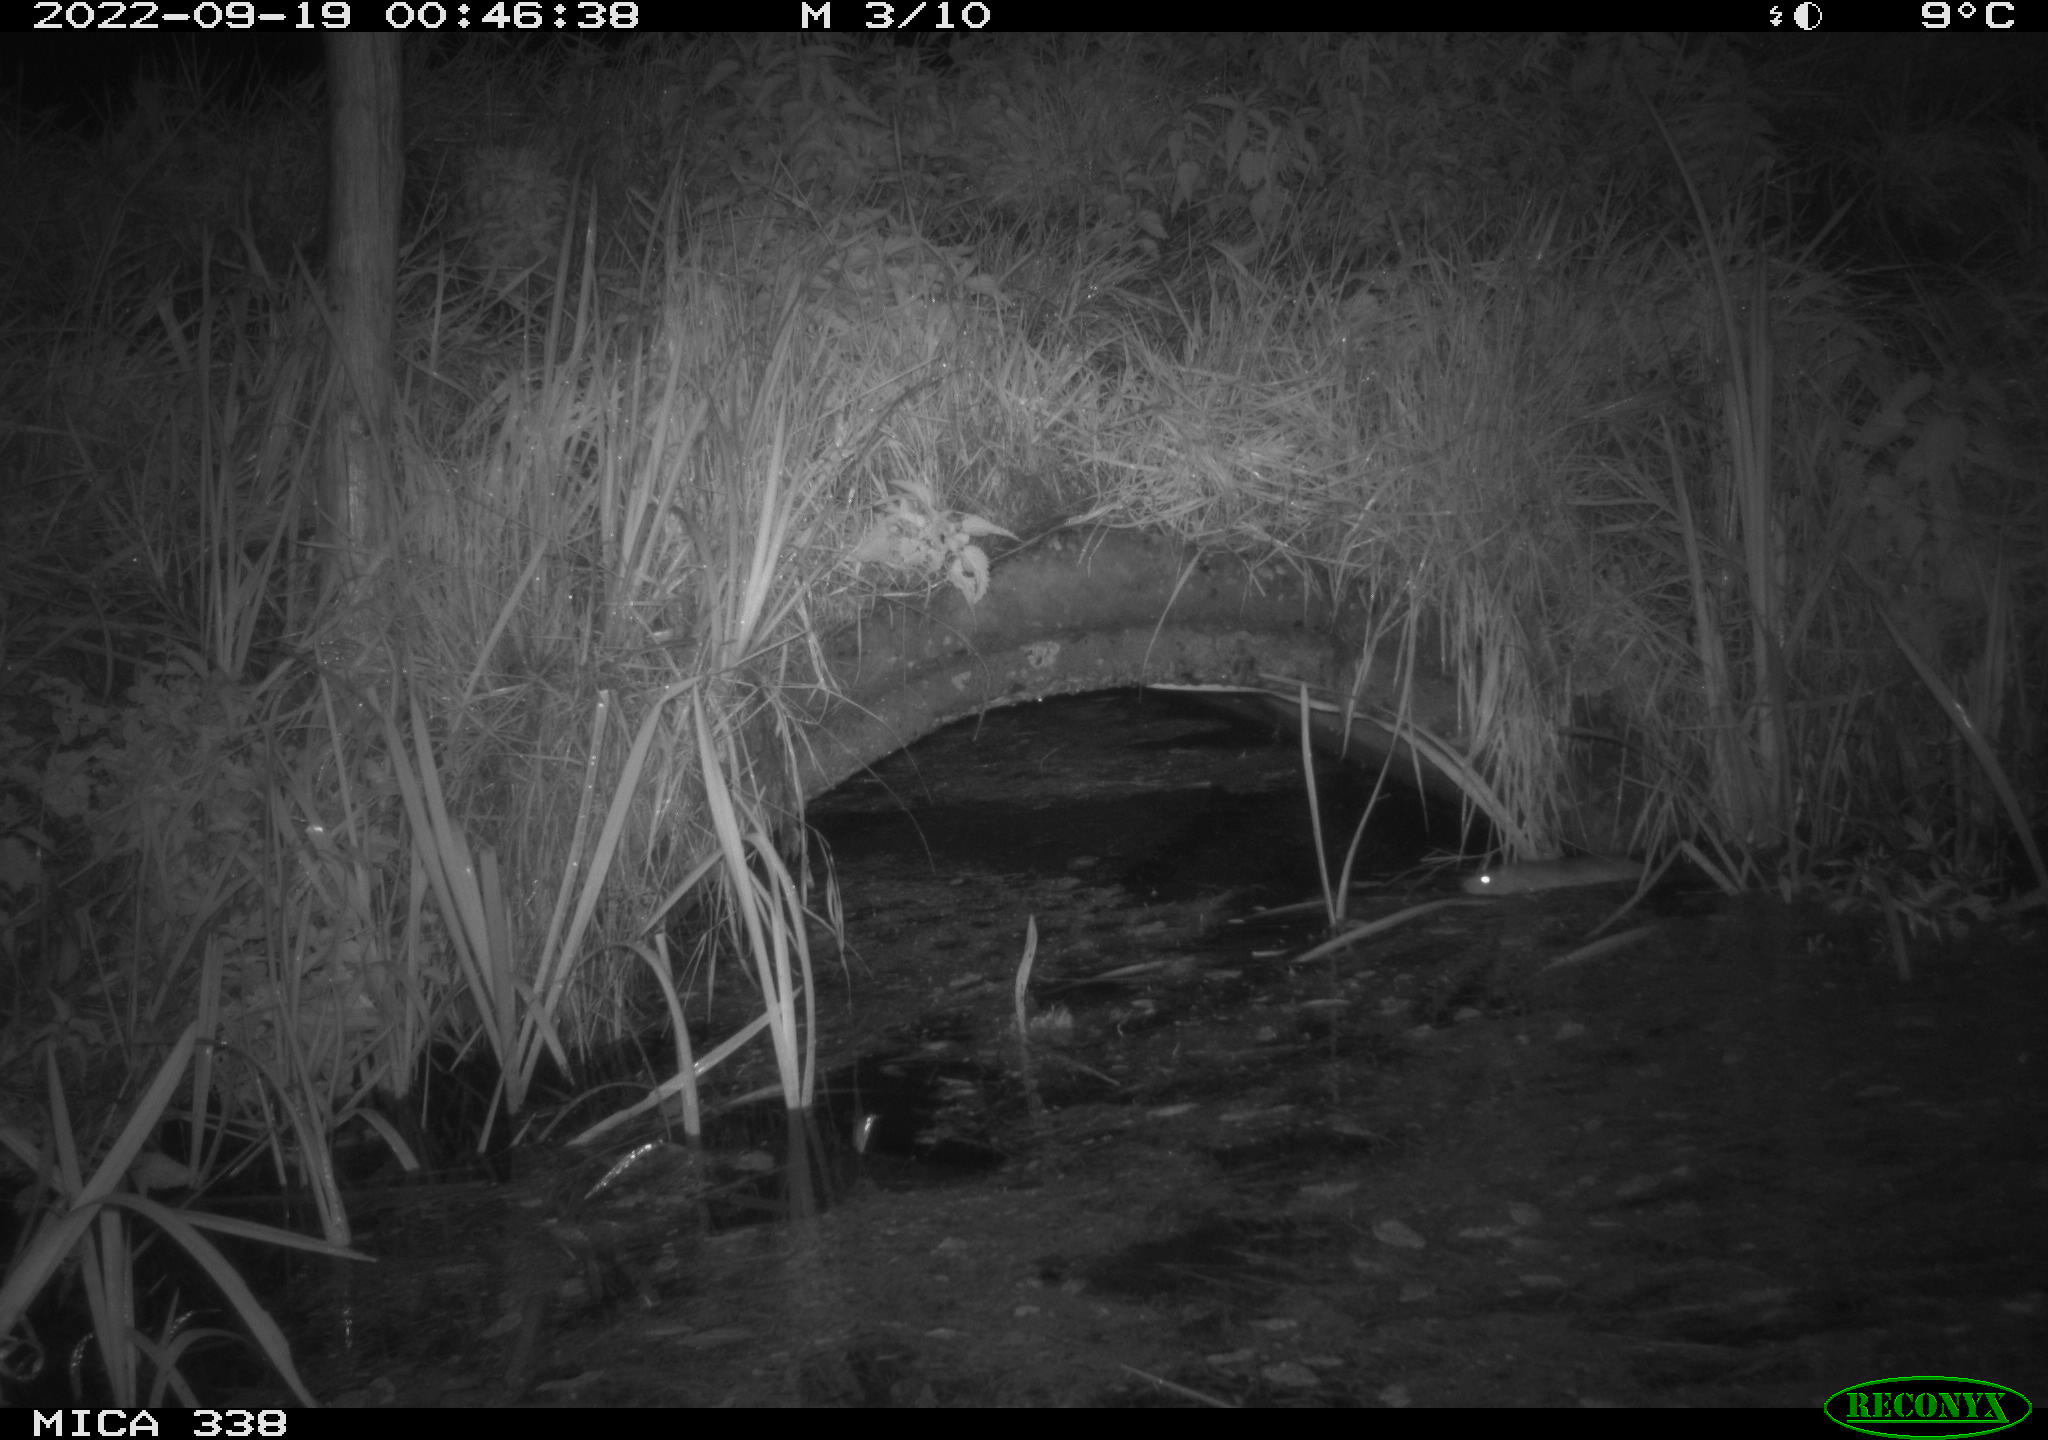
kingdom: Animalia
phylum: Chordata
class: Mammalia
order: Rodentia
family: Muridae
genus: Rattus
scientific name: Rattus norvegicus
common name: Brown rat
